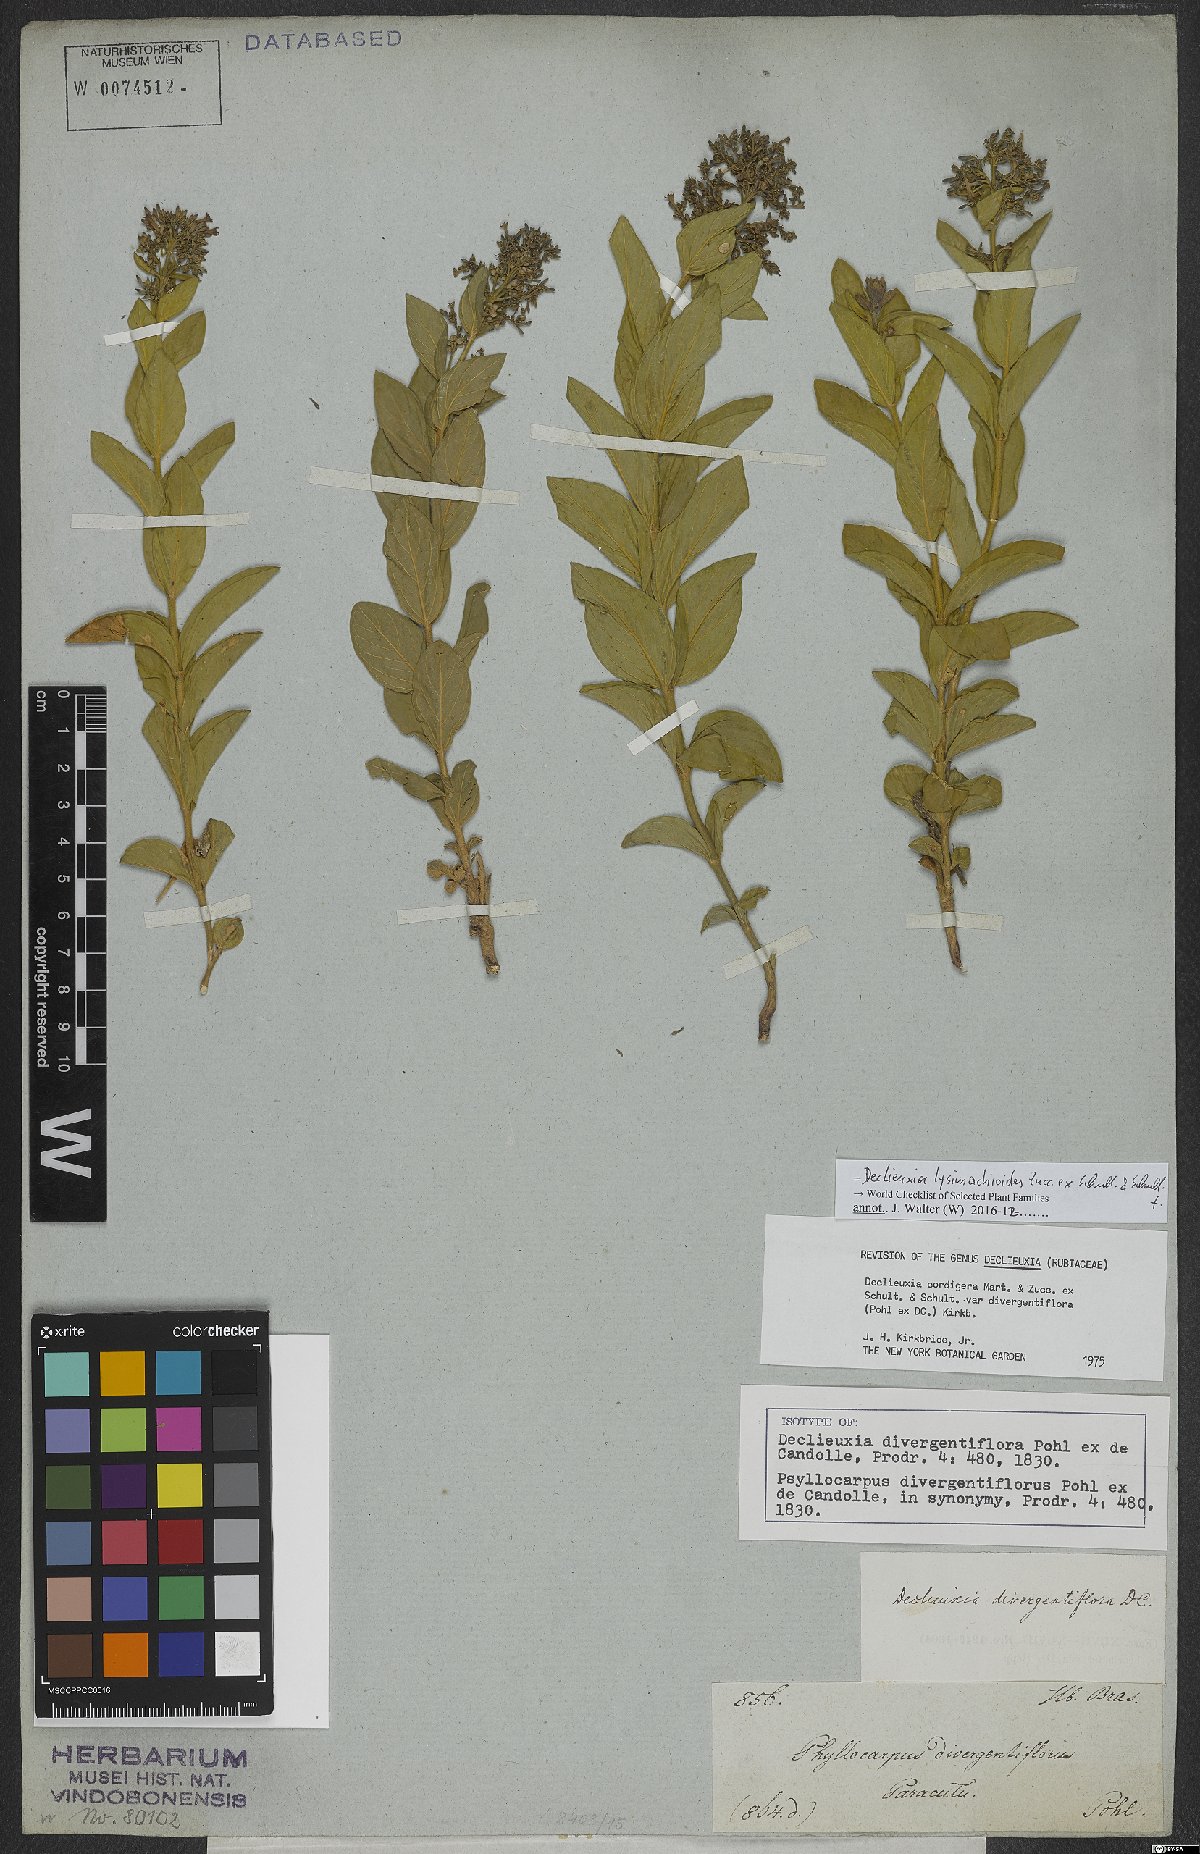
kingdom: Plantae
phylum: Tracheophyta
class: Magnoliopsida
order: Gentianales
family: Rubiaceae
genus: Declieuxia
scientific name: Declieuxia lysimachioides
